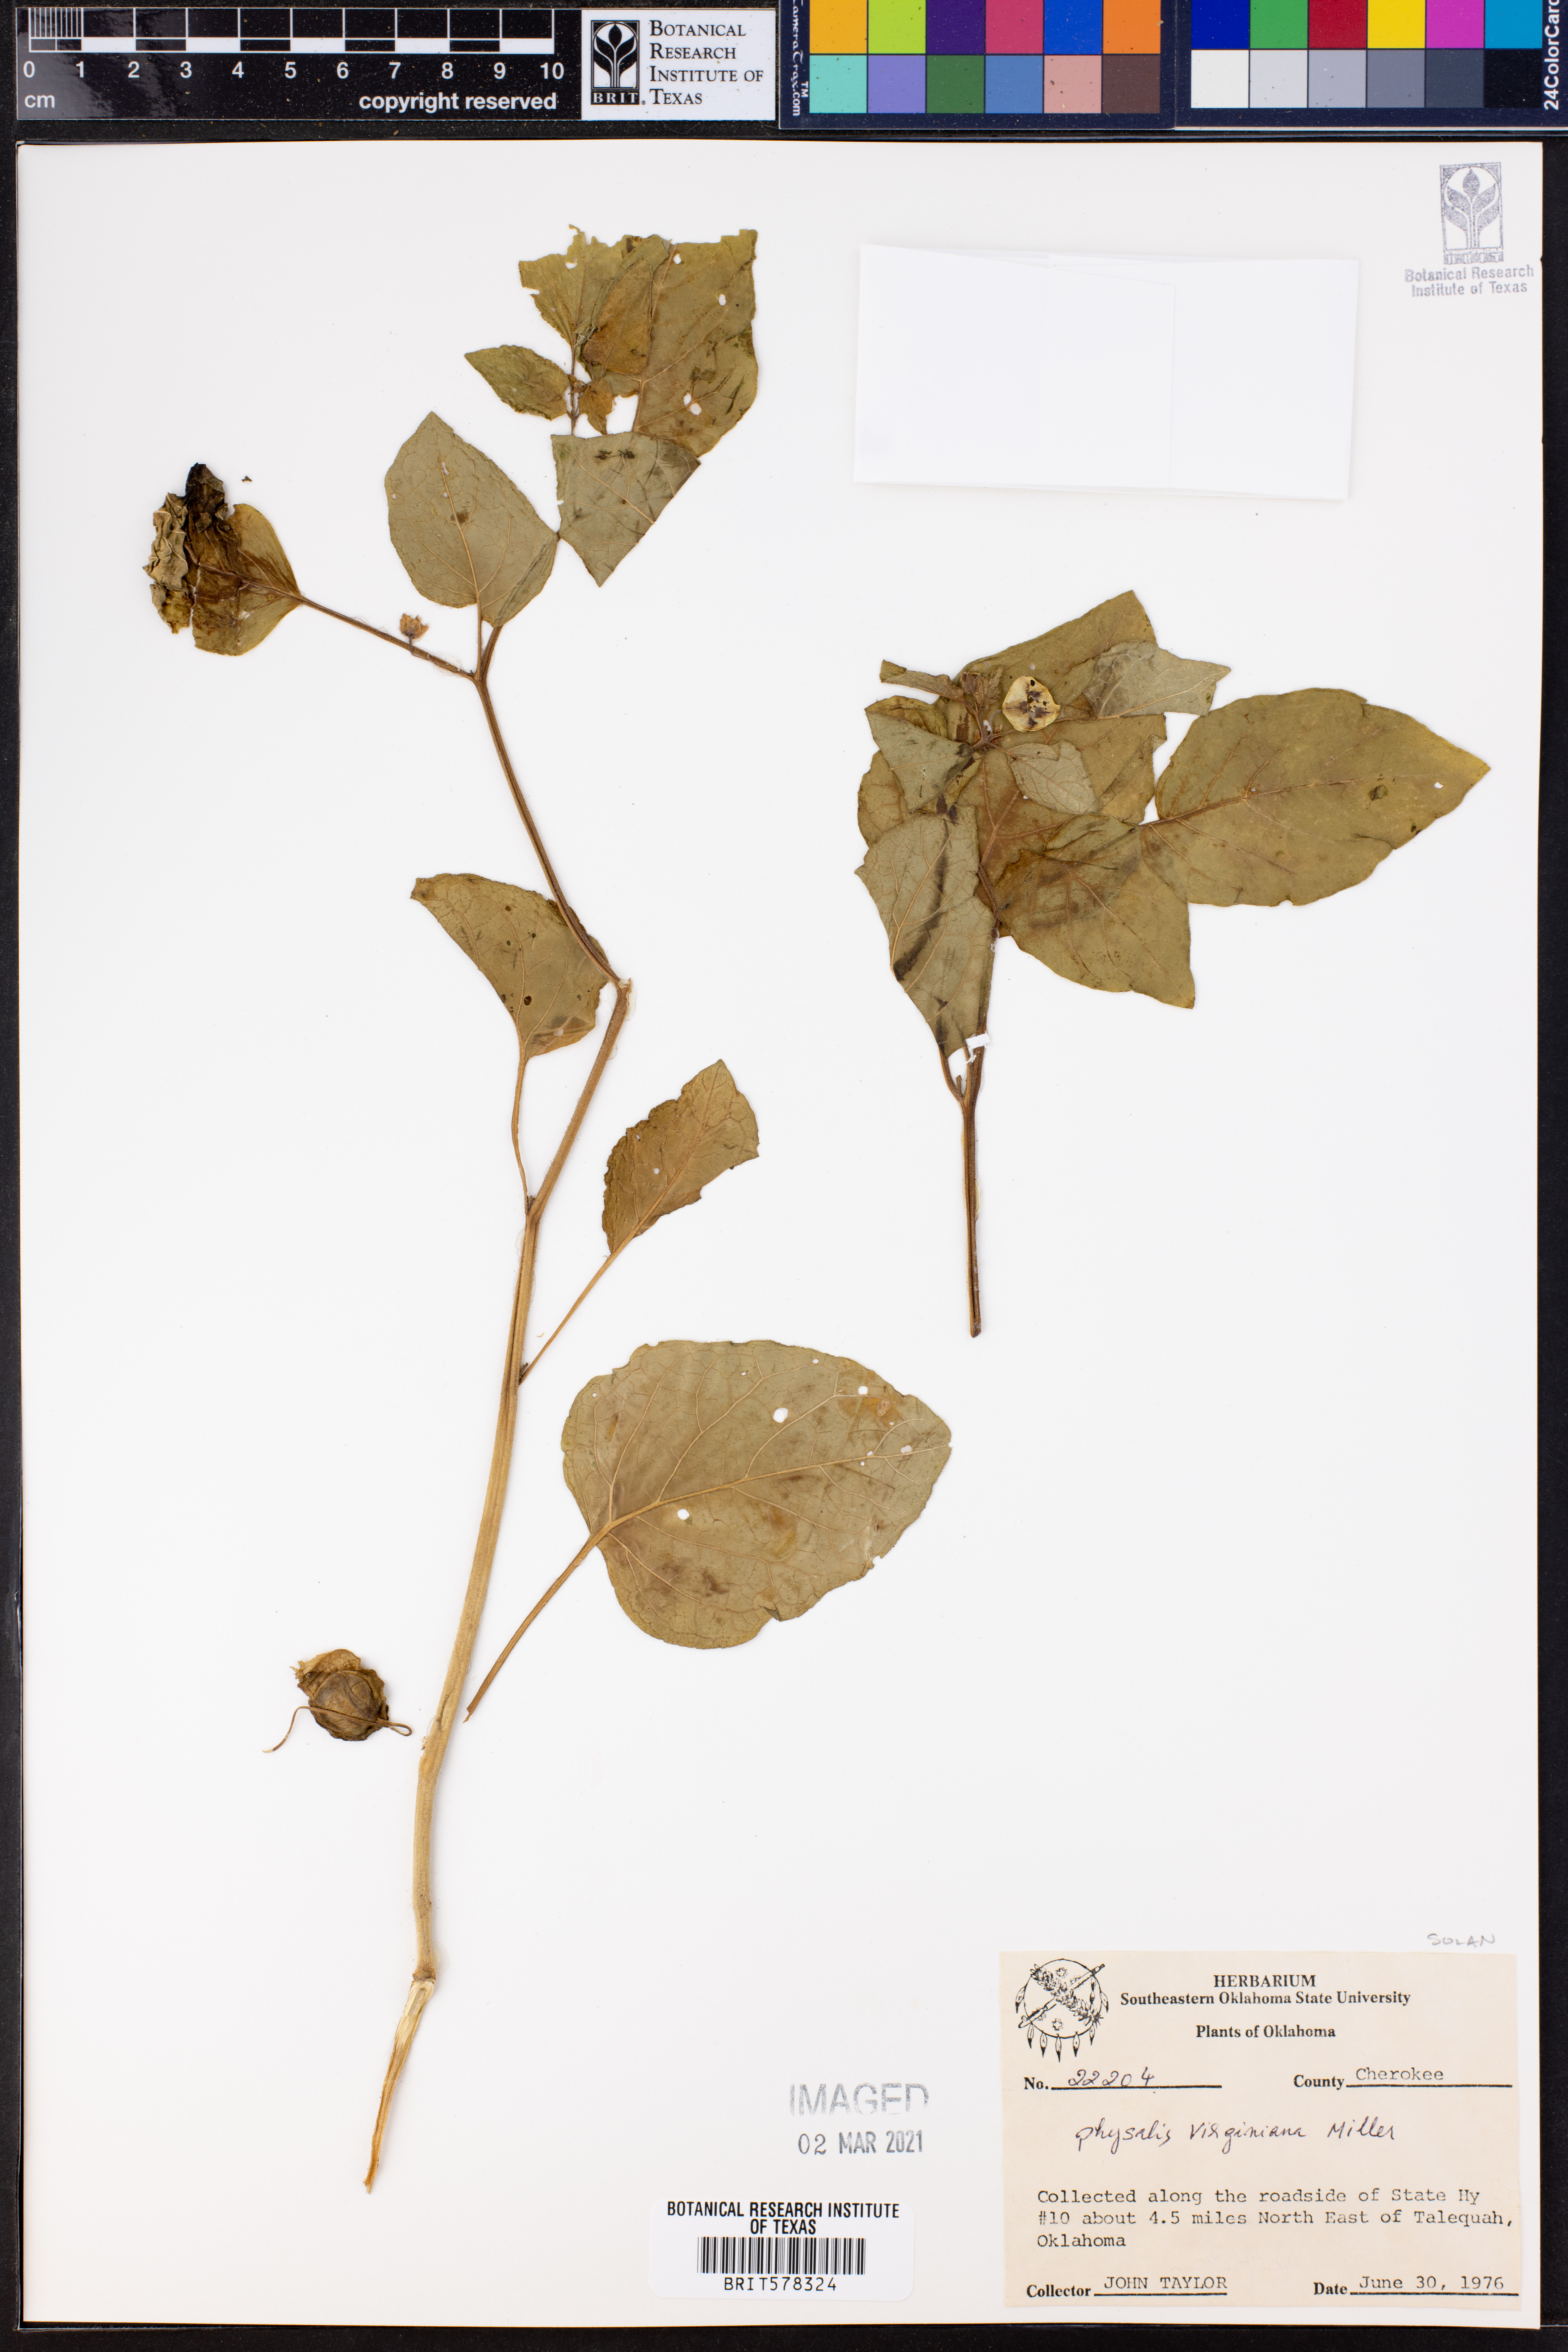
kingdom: Plantae
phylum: Tracheophyta
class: Magnoliopsida
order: Solanales
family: Solanaceae
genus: Physalis
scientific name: Physalis virginiana
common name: Virginia ground-cherry
